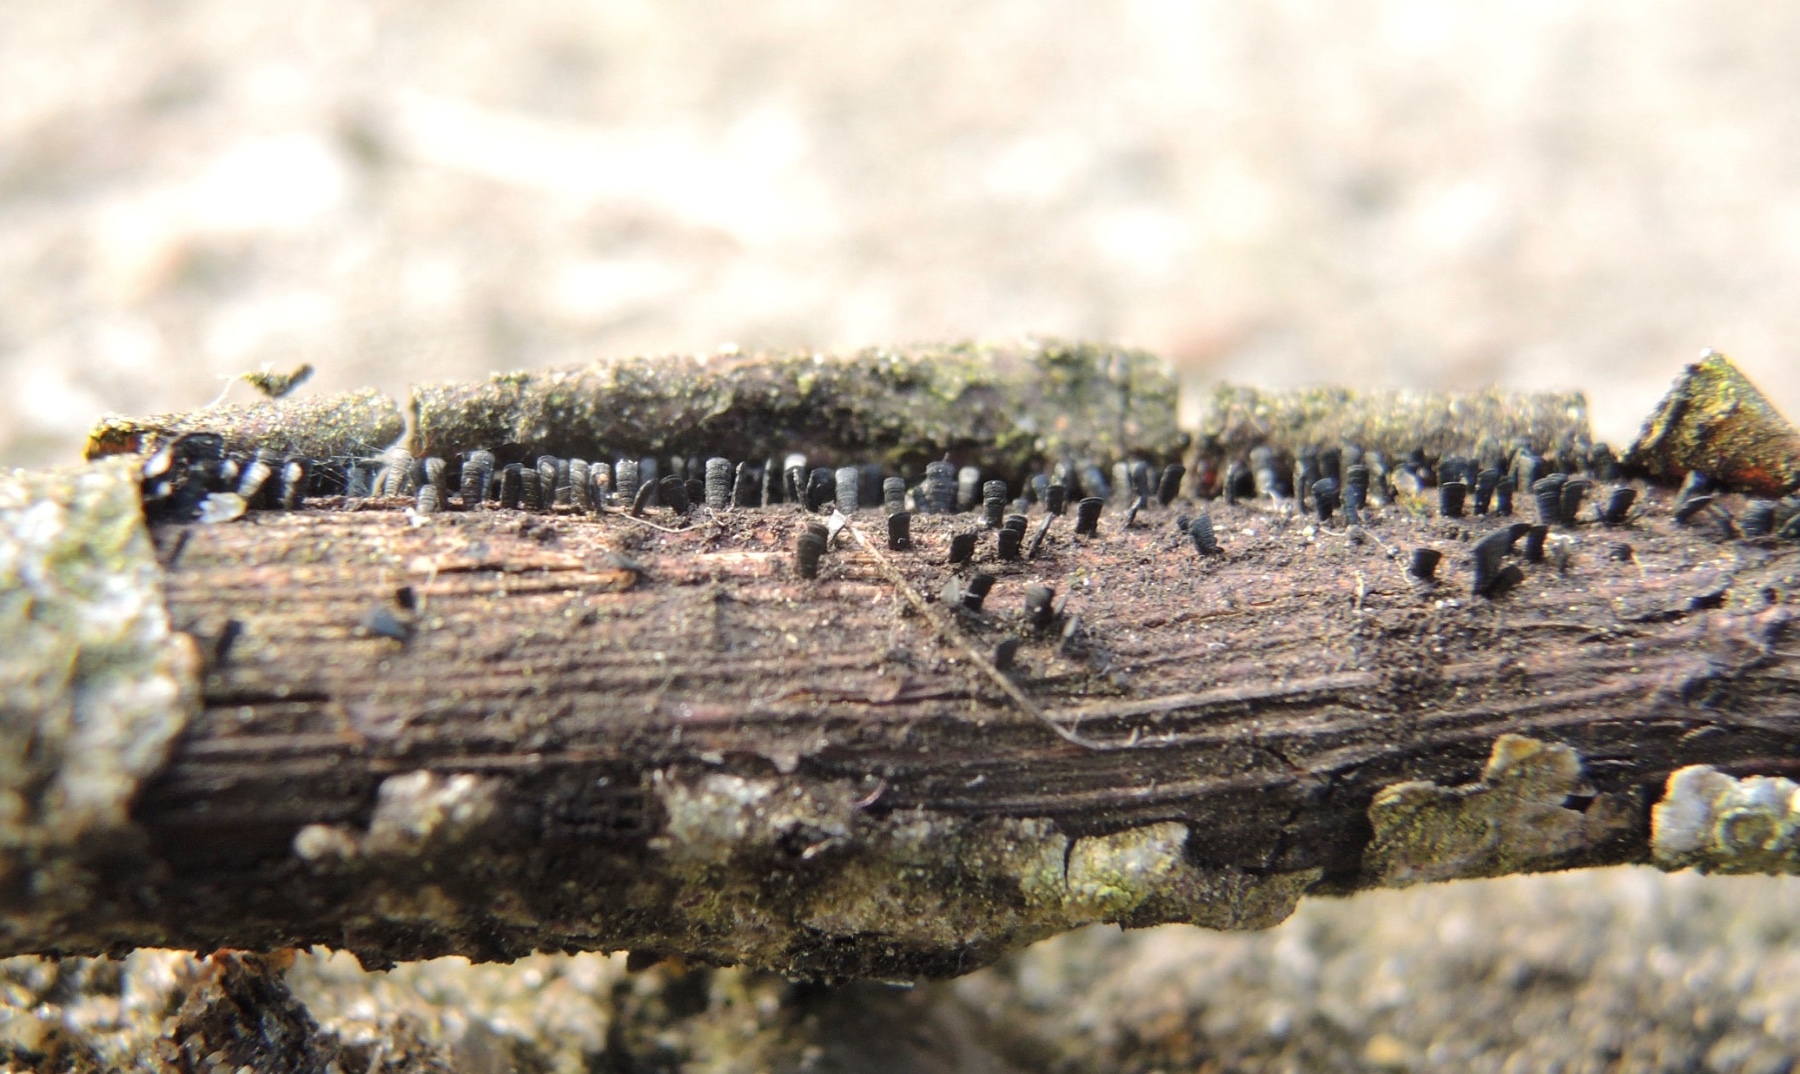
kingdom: Fungi
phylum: Ascomycota
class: Eurotiomycetes
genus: Glyphium
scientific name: Glyphium elatum
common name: kuløkse
